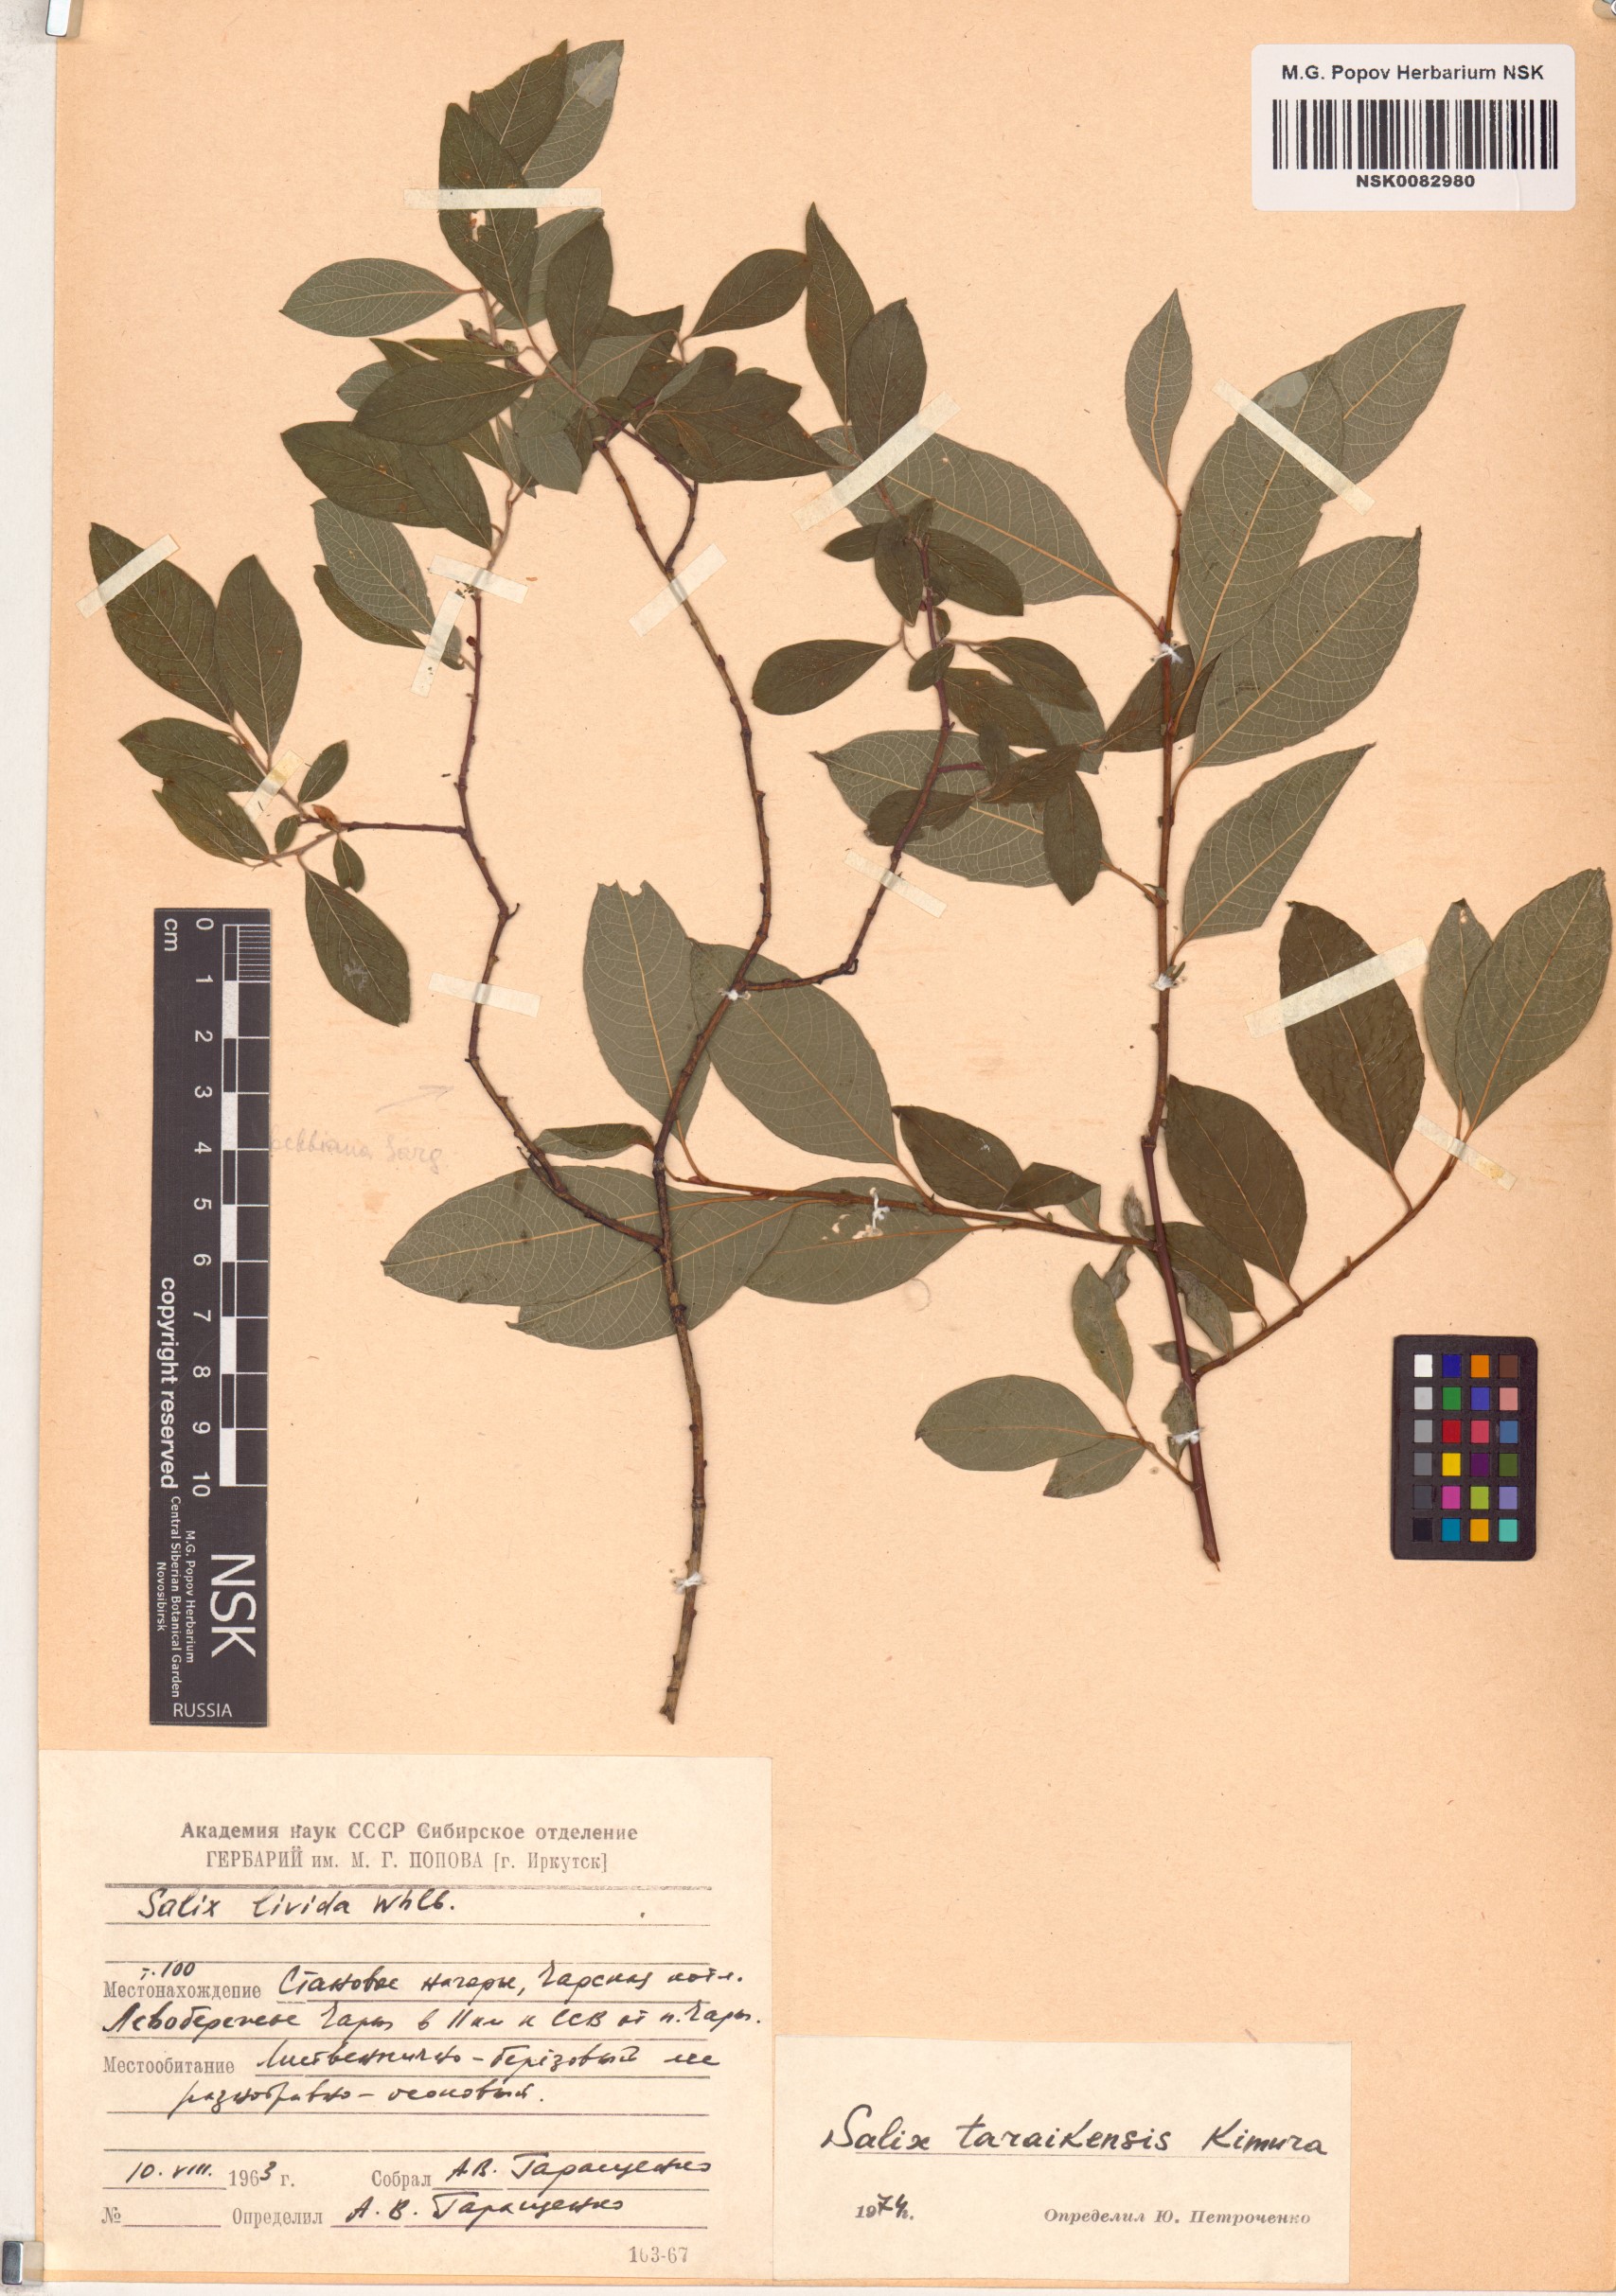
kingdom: Plantae
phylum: Tracheophyta
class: Magnoliopsida
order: Malpighiales
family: Salicaceae
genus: Salix
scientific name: Salix taraikensis
